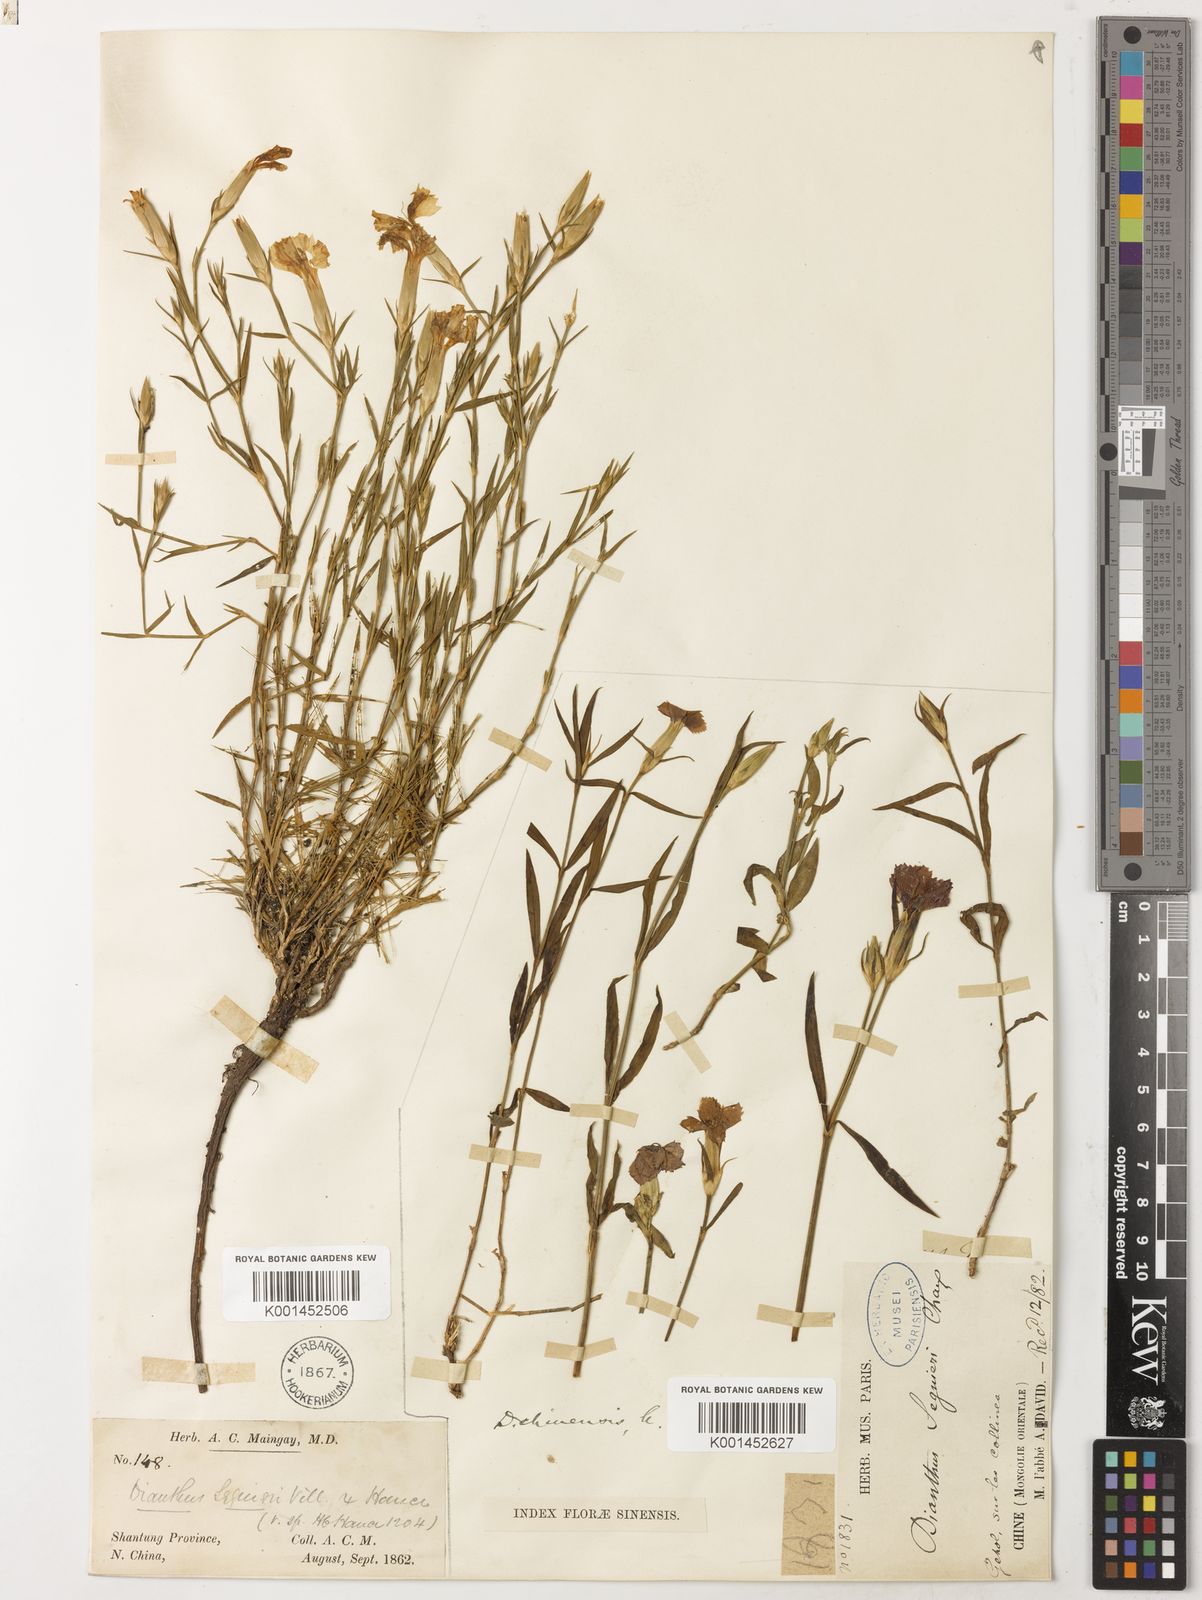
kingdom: Plantae
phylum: Tracheophyta
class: Magnoliopsida
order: Caryophyllales
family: Caryophyllaceae
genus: Dianthus
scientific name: Dianthus seguieri
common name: Ragged pink
